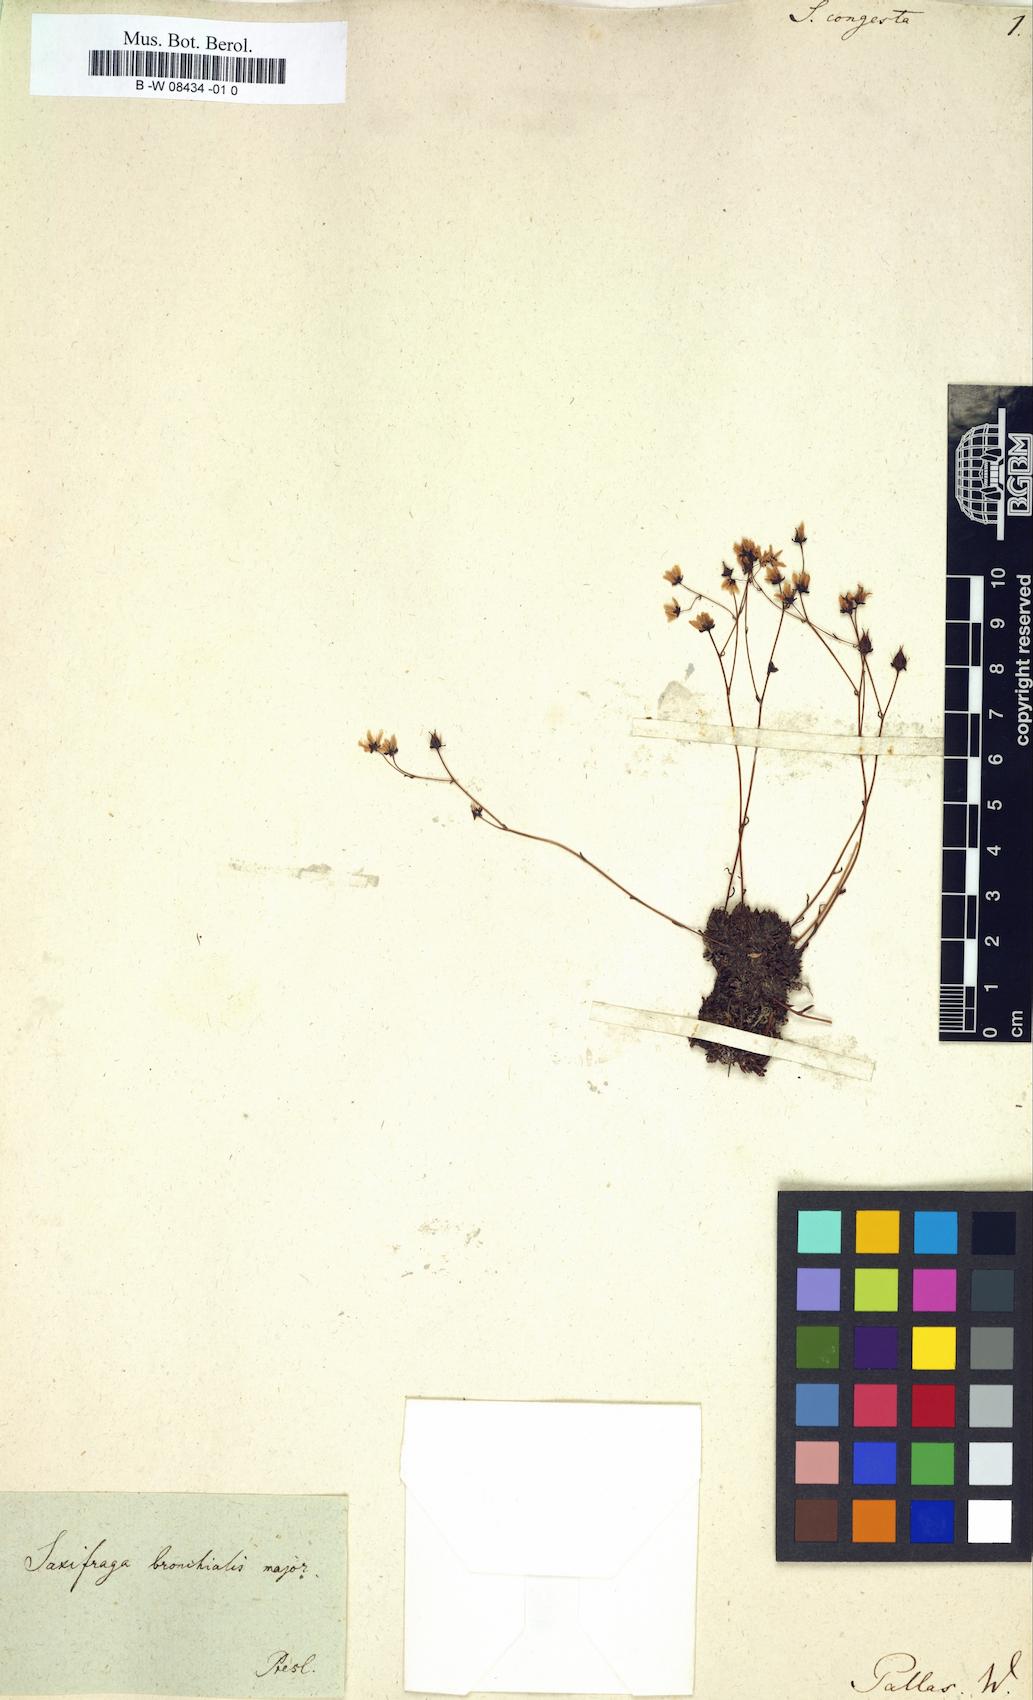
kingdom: Plantae
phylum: Tracheophyta
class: Magnoliopsida
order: Saxifragales
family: Saxifragaceae
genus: Saxifraga
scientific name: Saxifraga
